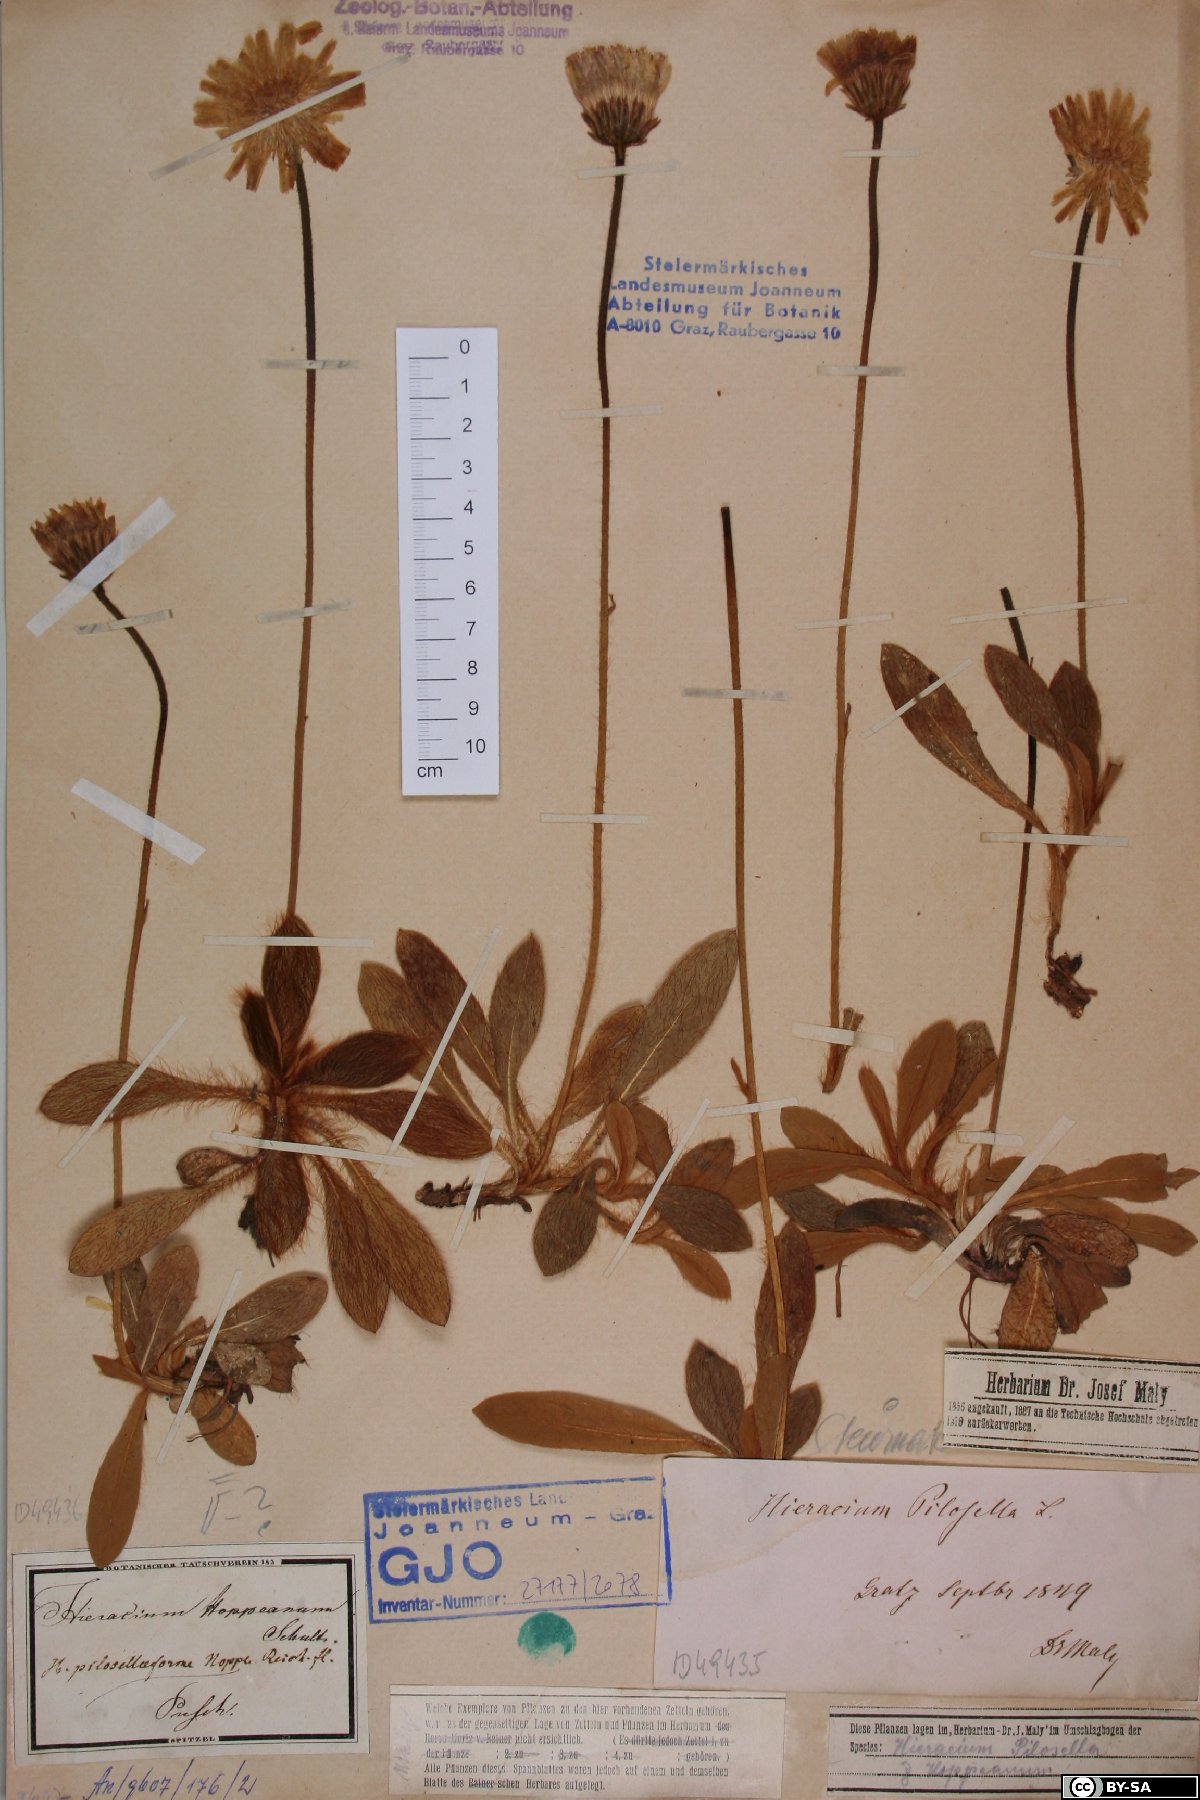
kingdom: Plantae
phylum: Tracheophyta
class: Magnoliopsida
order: Asterales
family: Asteraceae
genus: Pilosella
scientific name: Pilosella hoppeana
